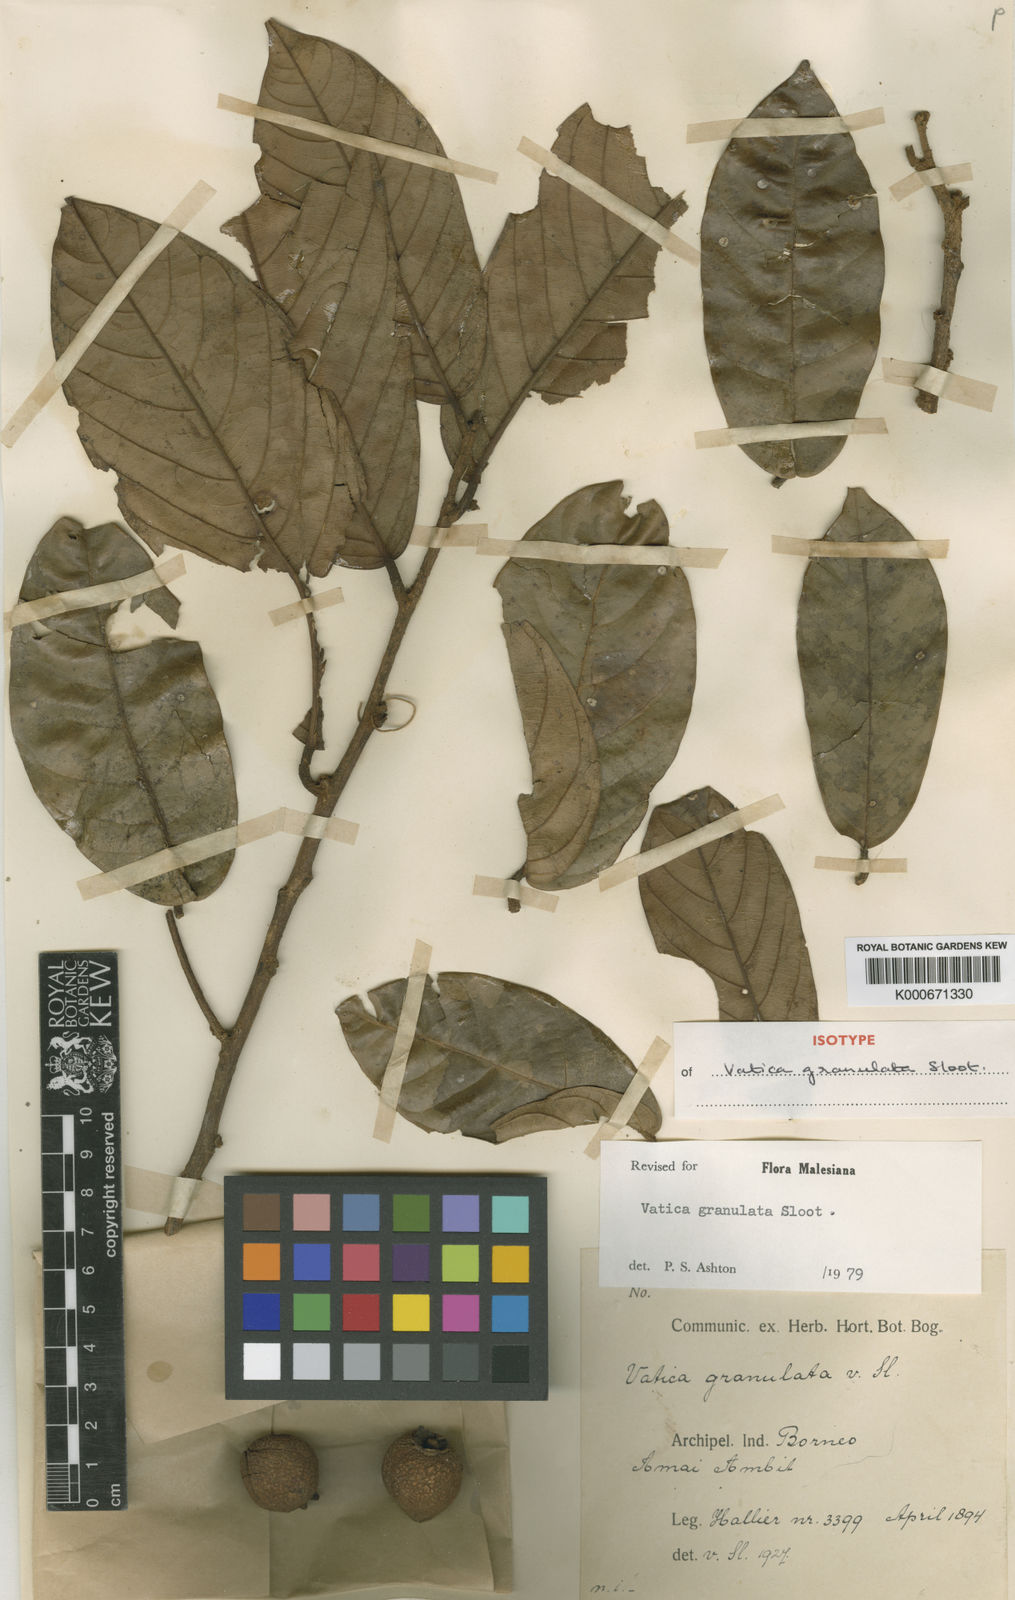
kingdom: Plantae
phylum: Tracheophyta
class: Magnoliopsida
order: Malvales
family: Dipterocarpaceae
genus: Vatica
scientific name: Vatica granulata
